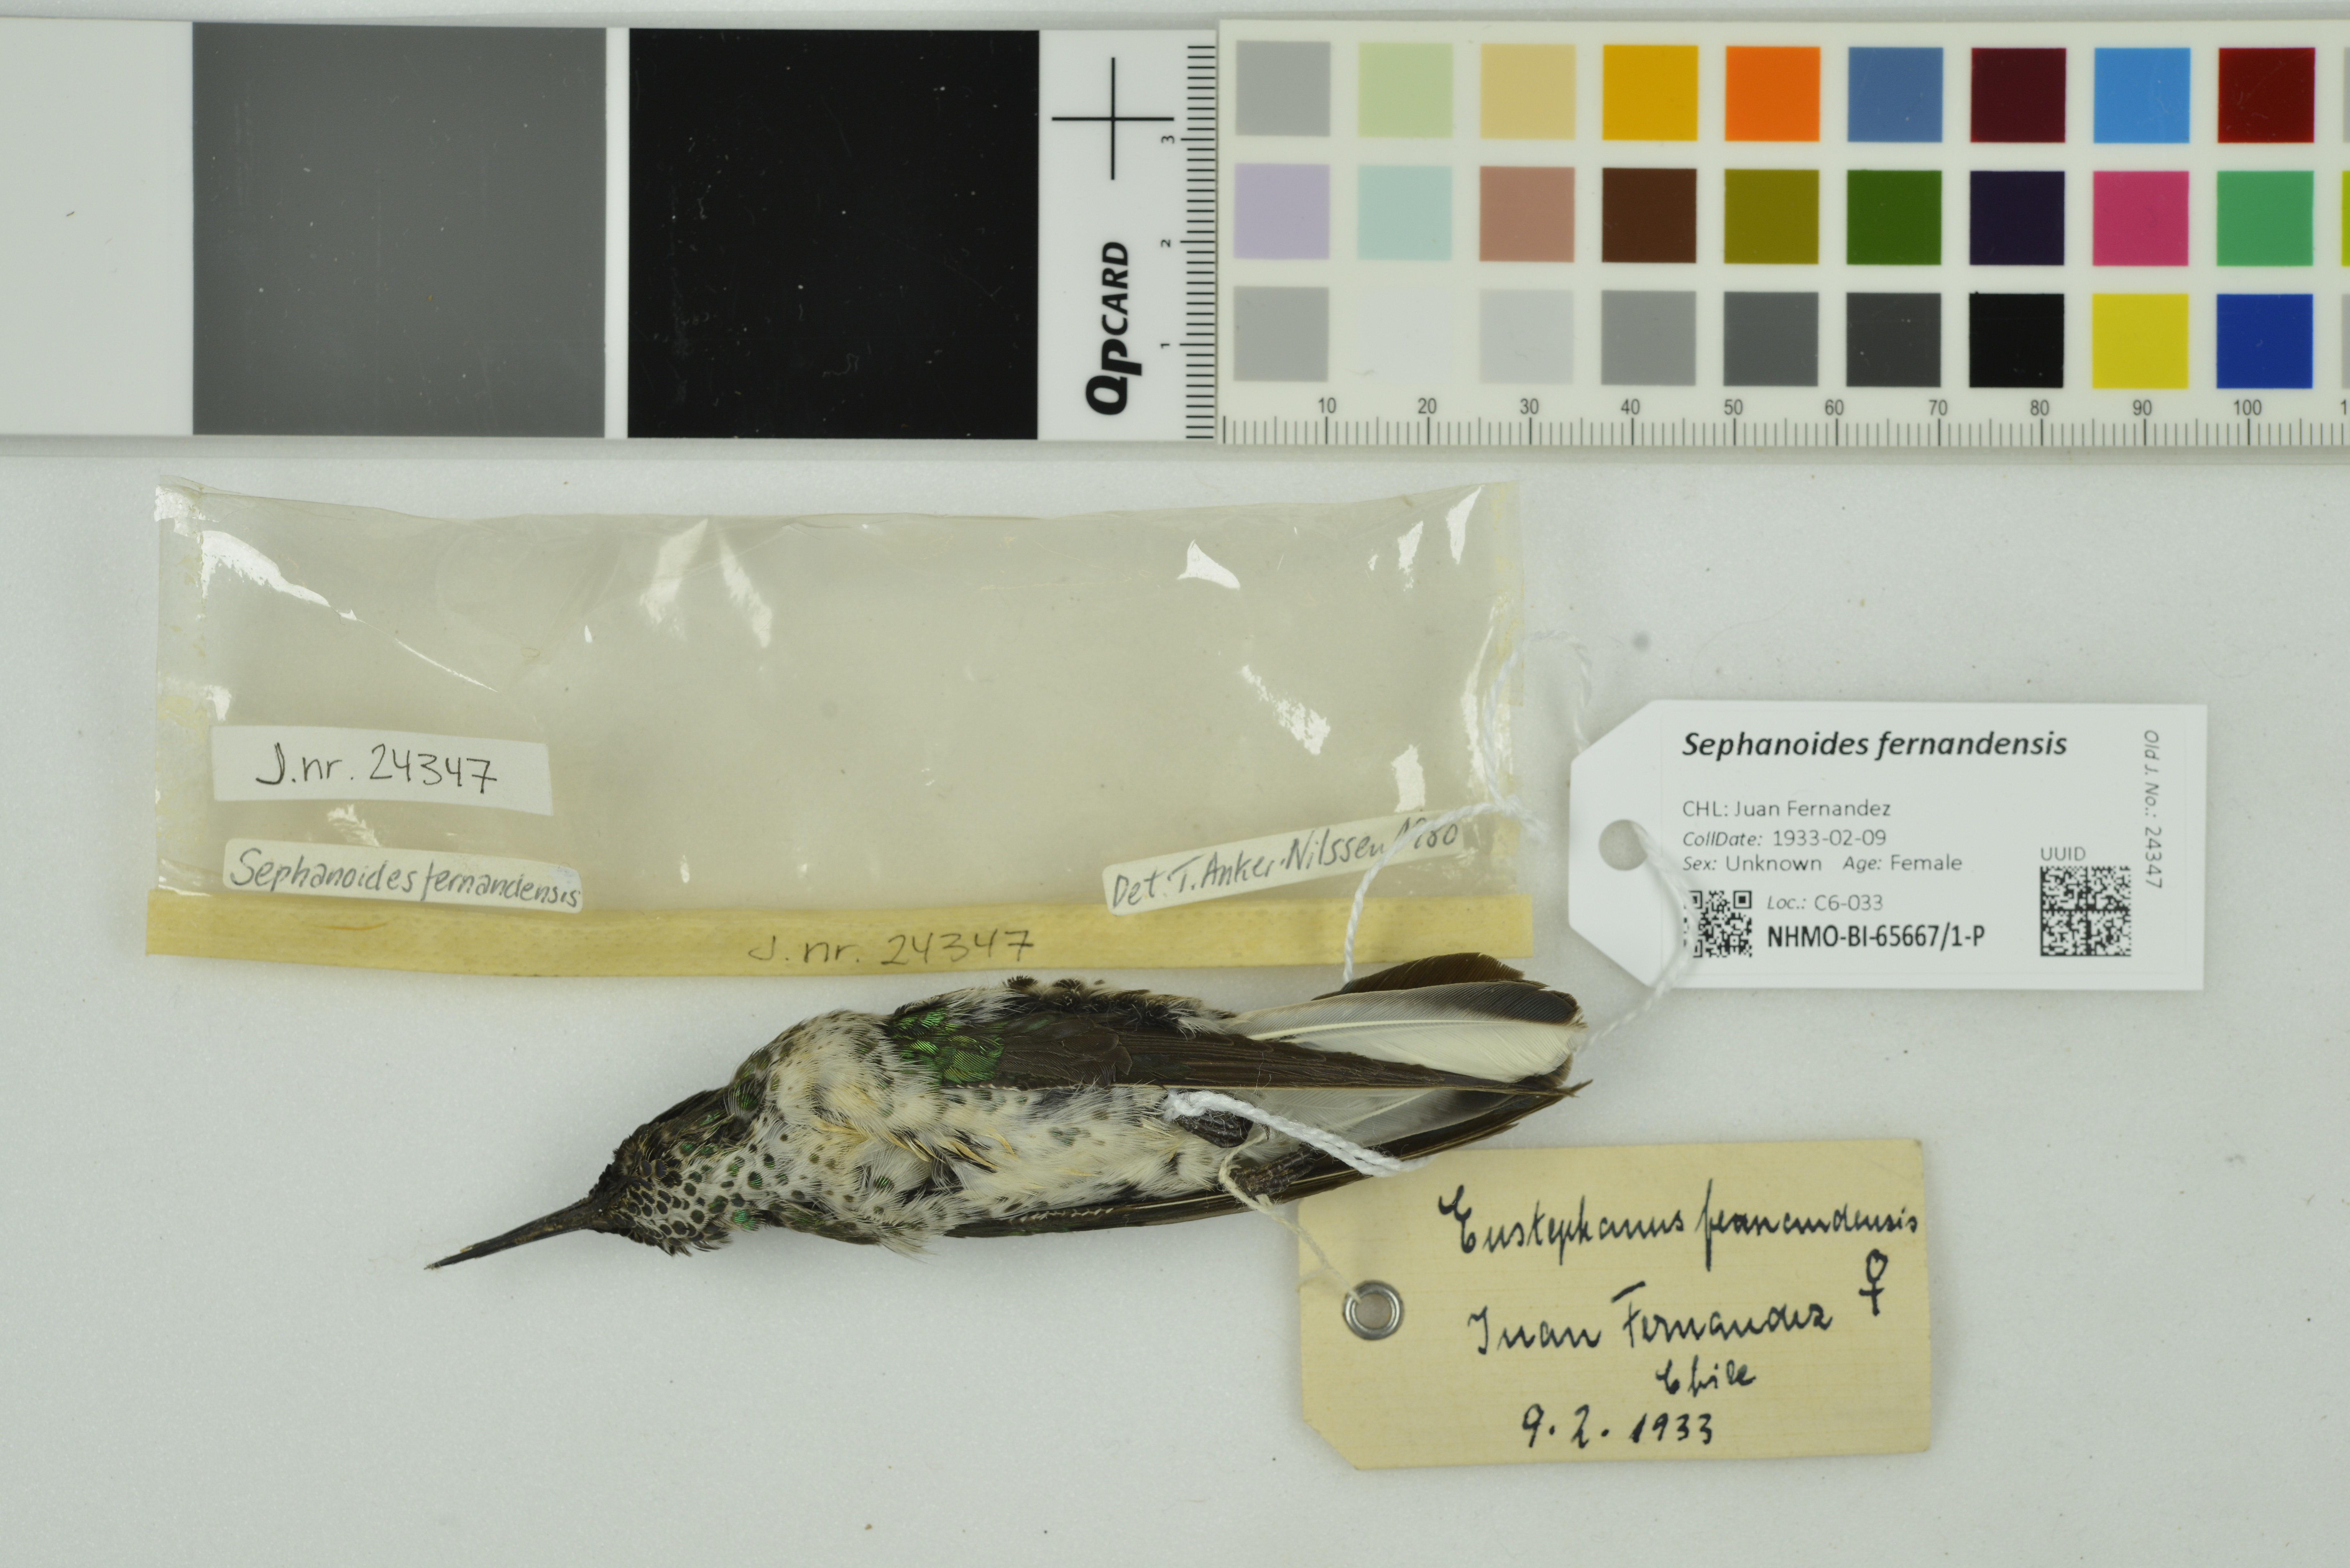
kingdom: Animalia
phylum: Chordata
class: Aves
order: Apodiformes
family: Trochilidae
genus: Sephanoides
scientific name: Sephanoides fernandensis
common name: Juan fernandez firecrown
